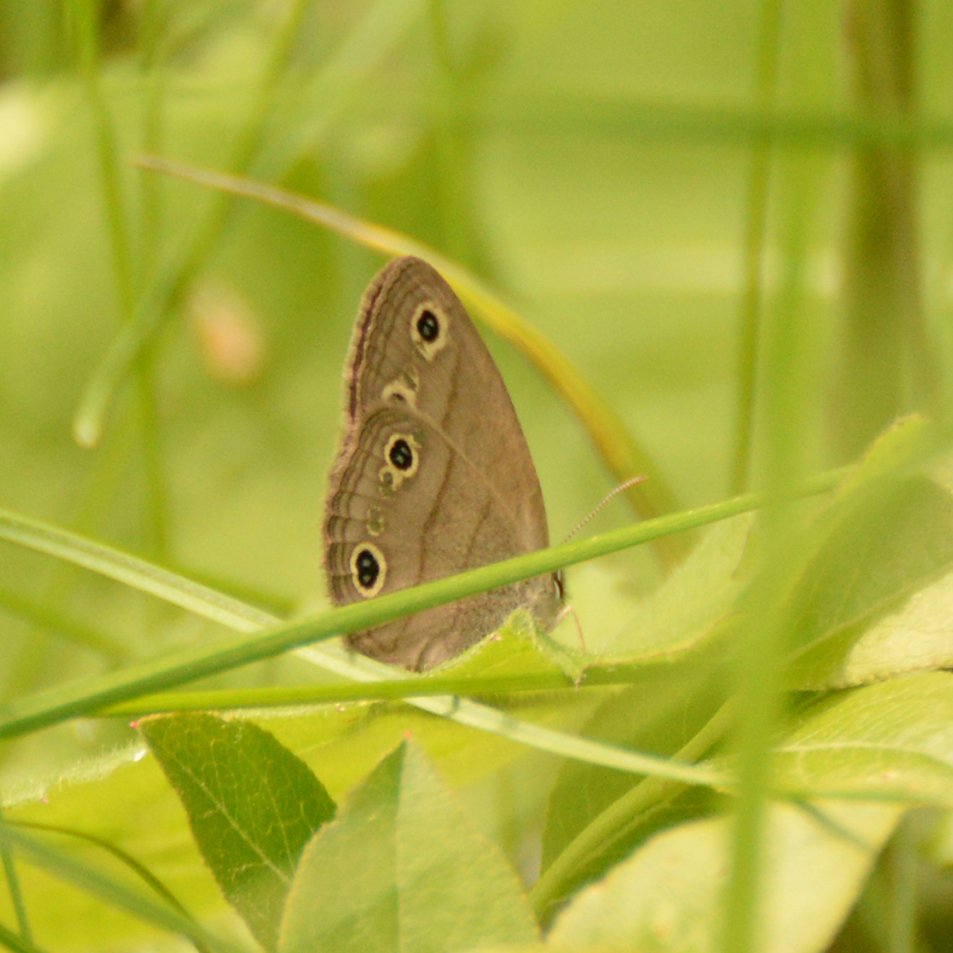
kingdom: Animalia
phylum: Arthropoda
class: Insecta
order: Lepidoptera
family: Nymphalidae
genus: Euptychia
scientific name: Euptychia cymela
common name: Little Wood Satyr
